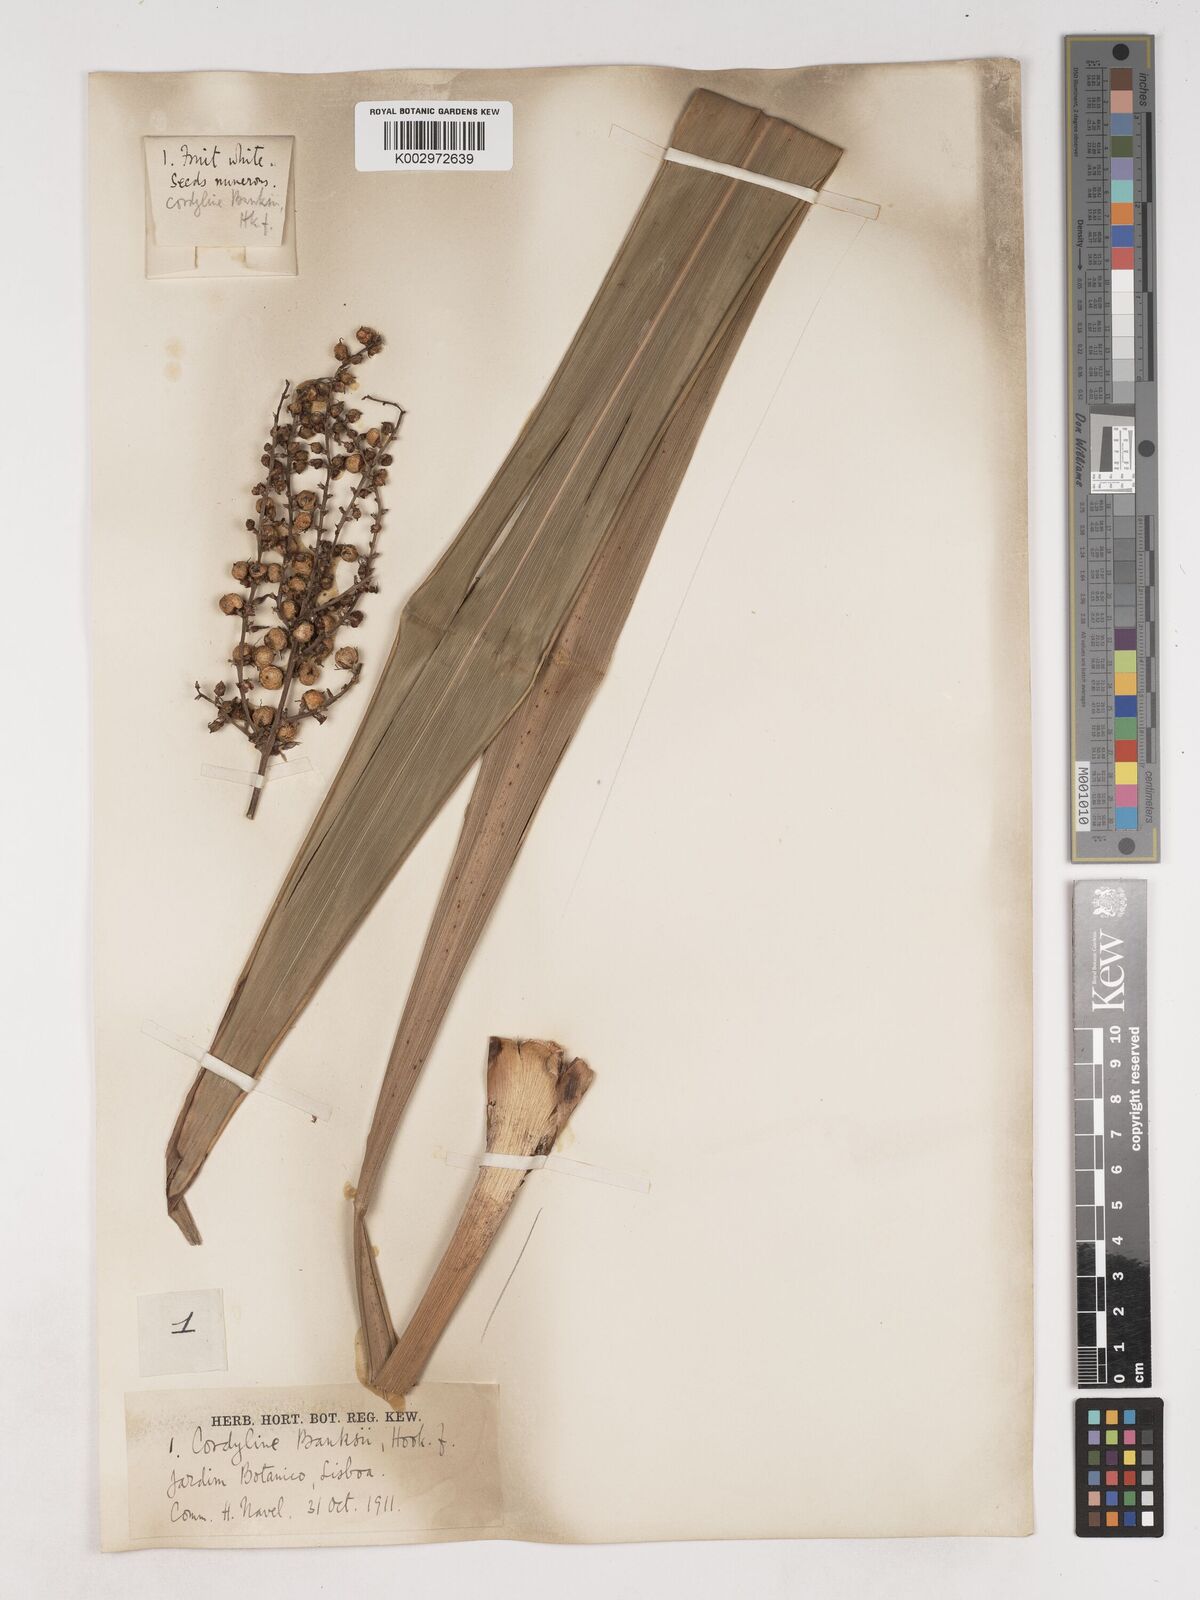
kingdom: Plantae
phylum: Tracheophyta
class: Liliopsida
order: Asparagales
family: Asparagaceae
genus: Cordyline
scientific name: Cordyline banksii
